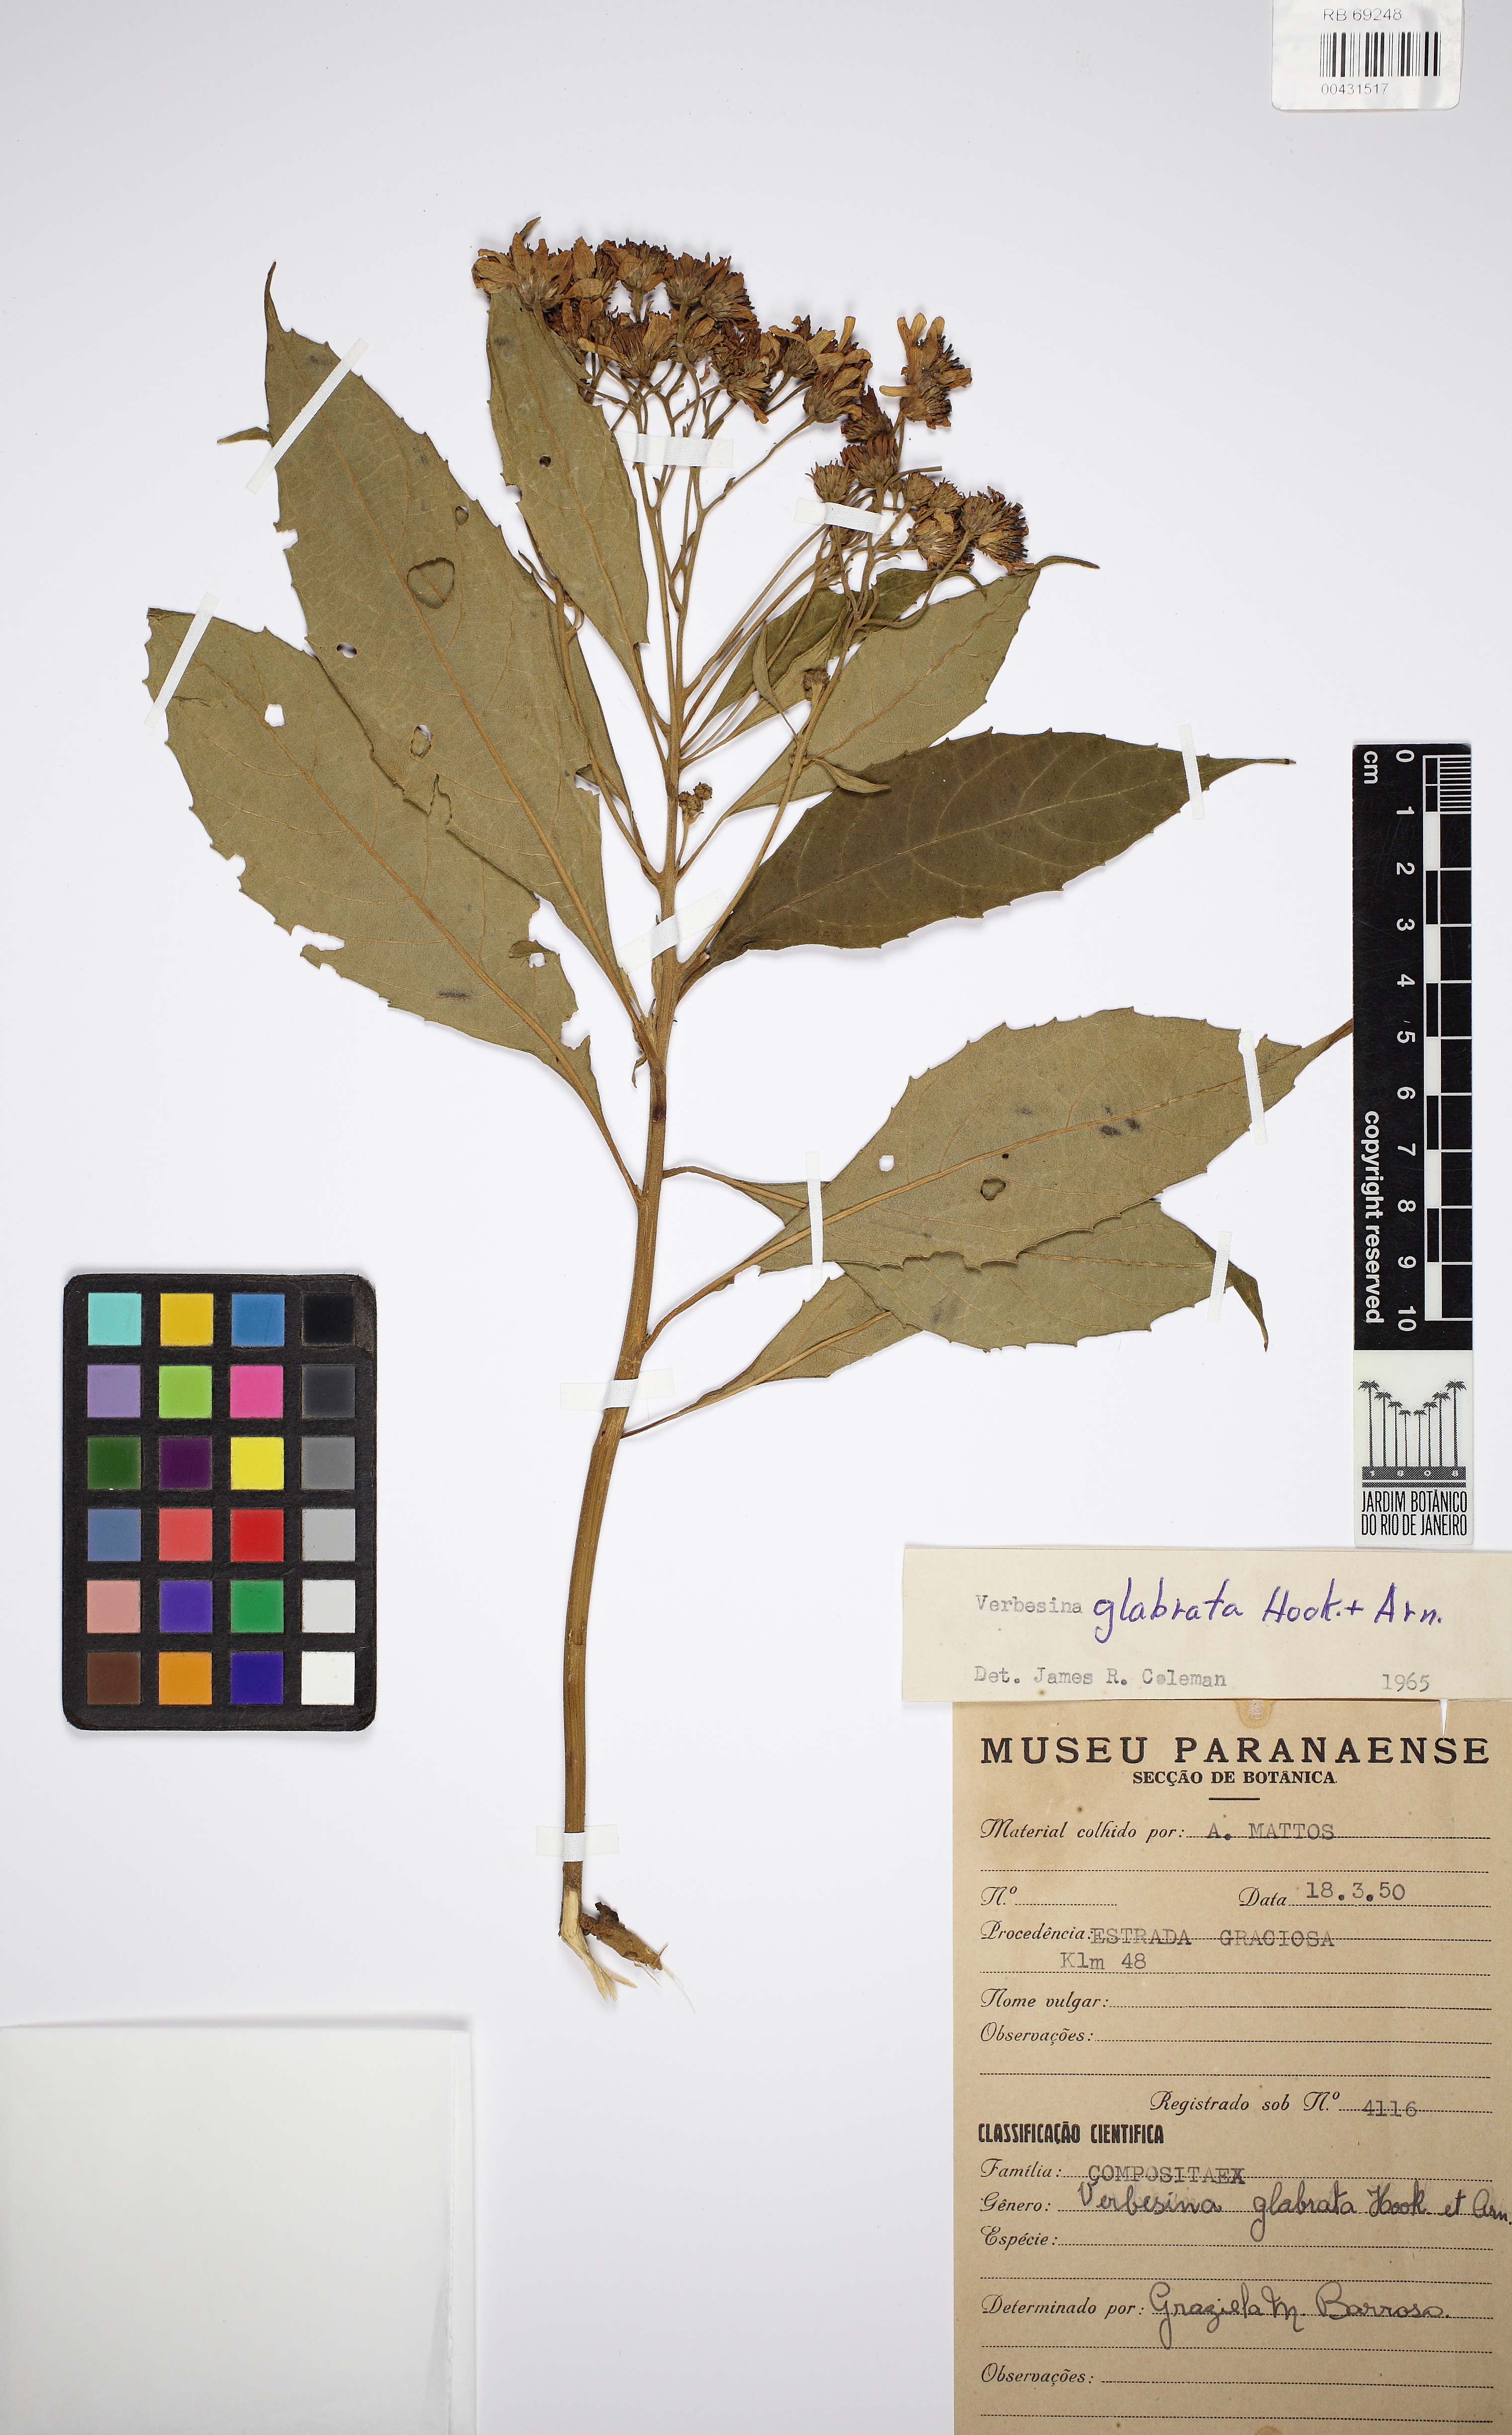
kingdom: Plantae
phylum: Tracheophyta
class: Magnoliopsida
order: Asterales
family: Asteraceae
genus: Verbesina
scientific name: Verbesina glabrata
